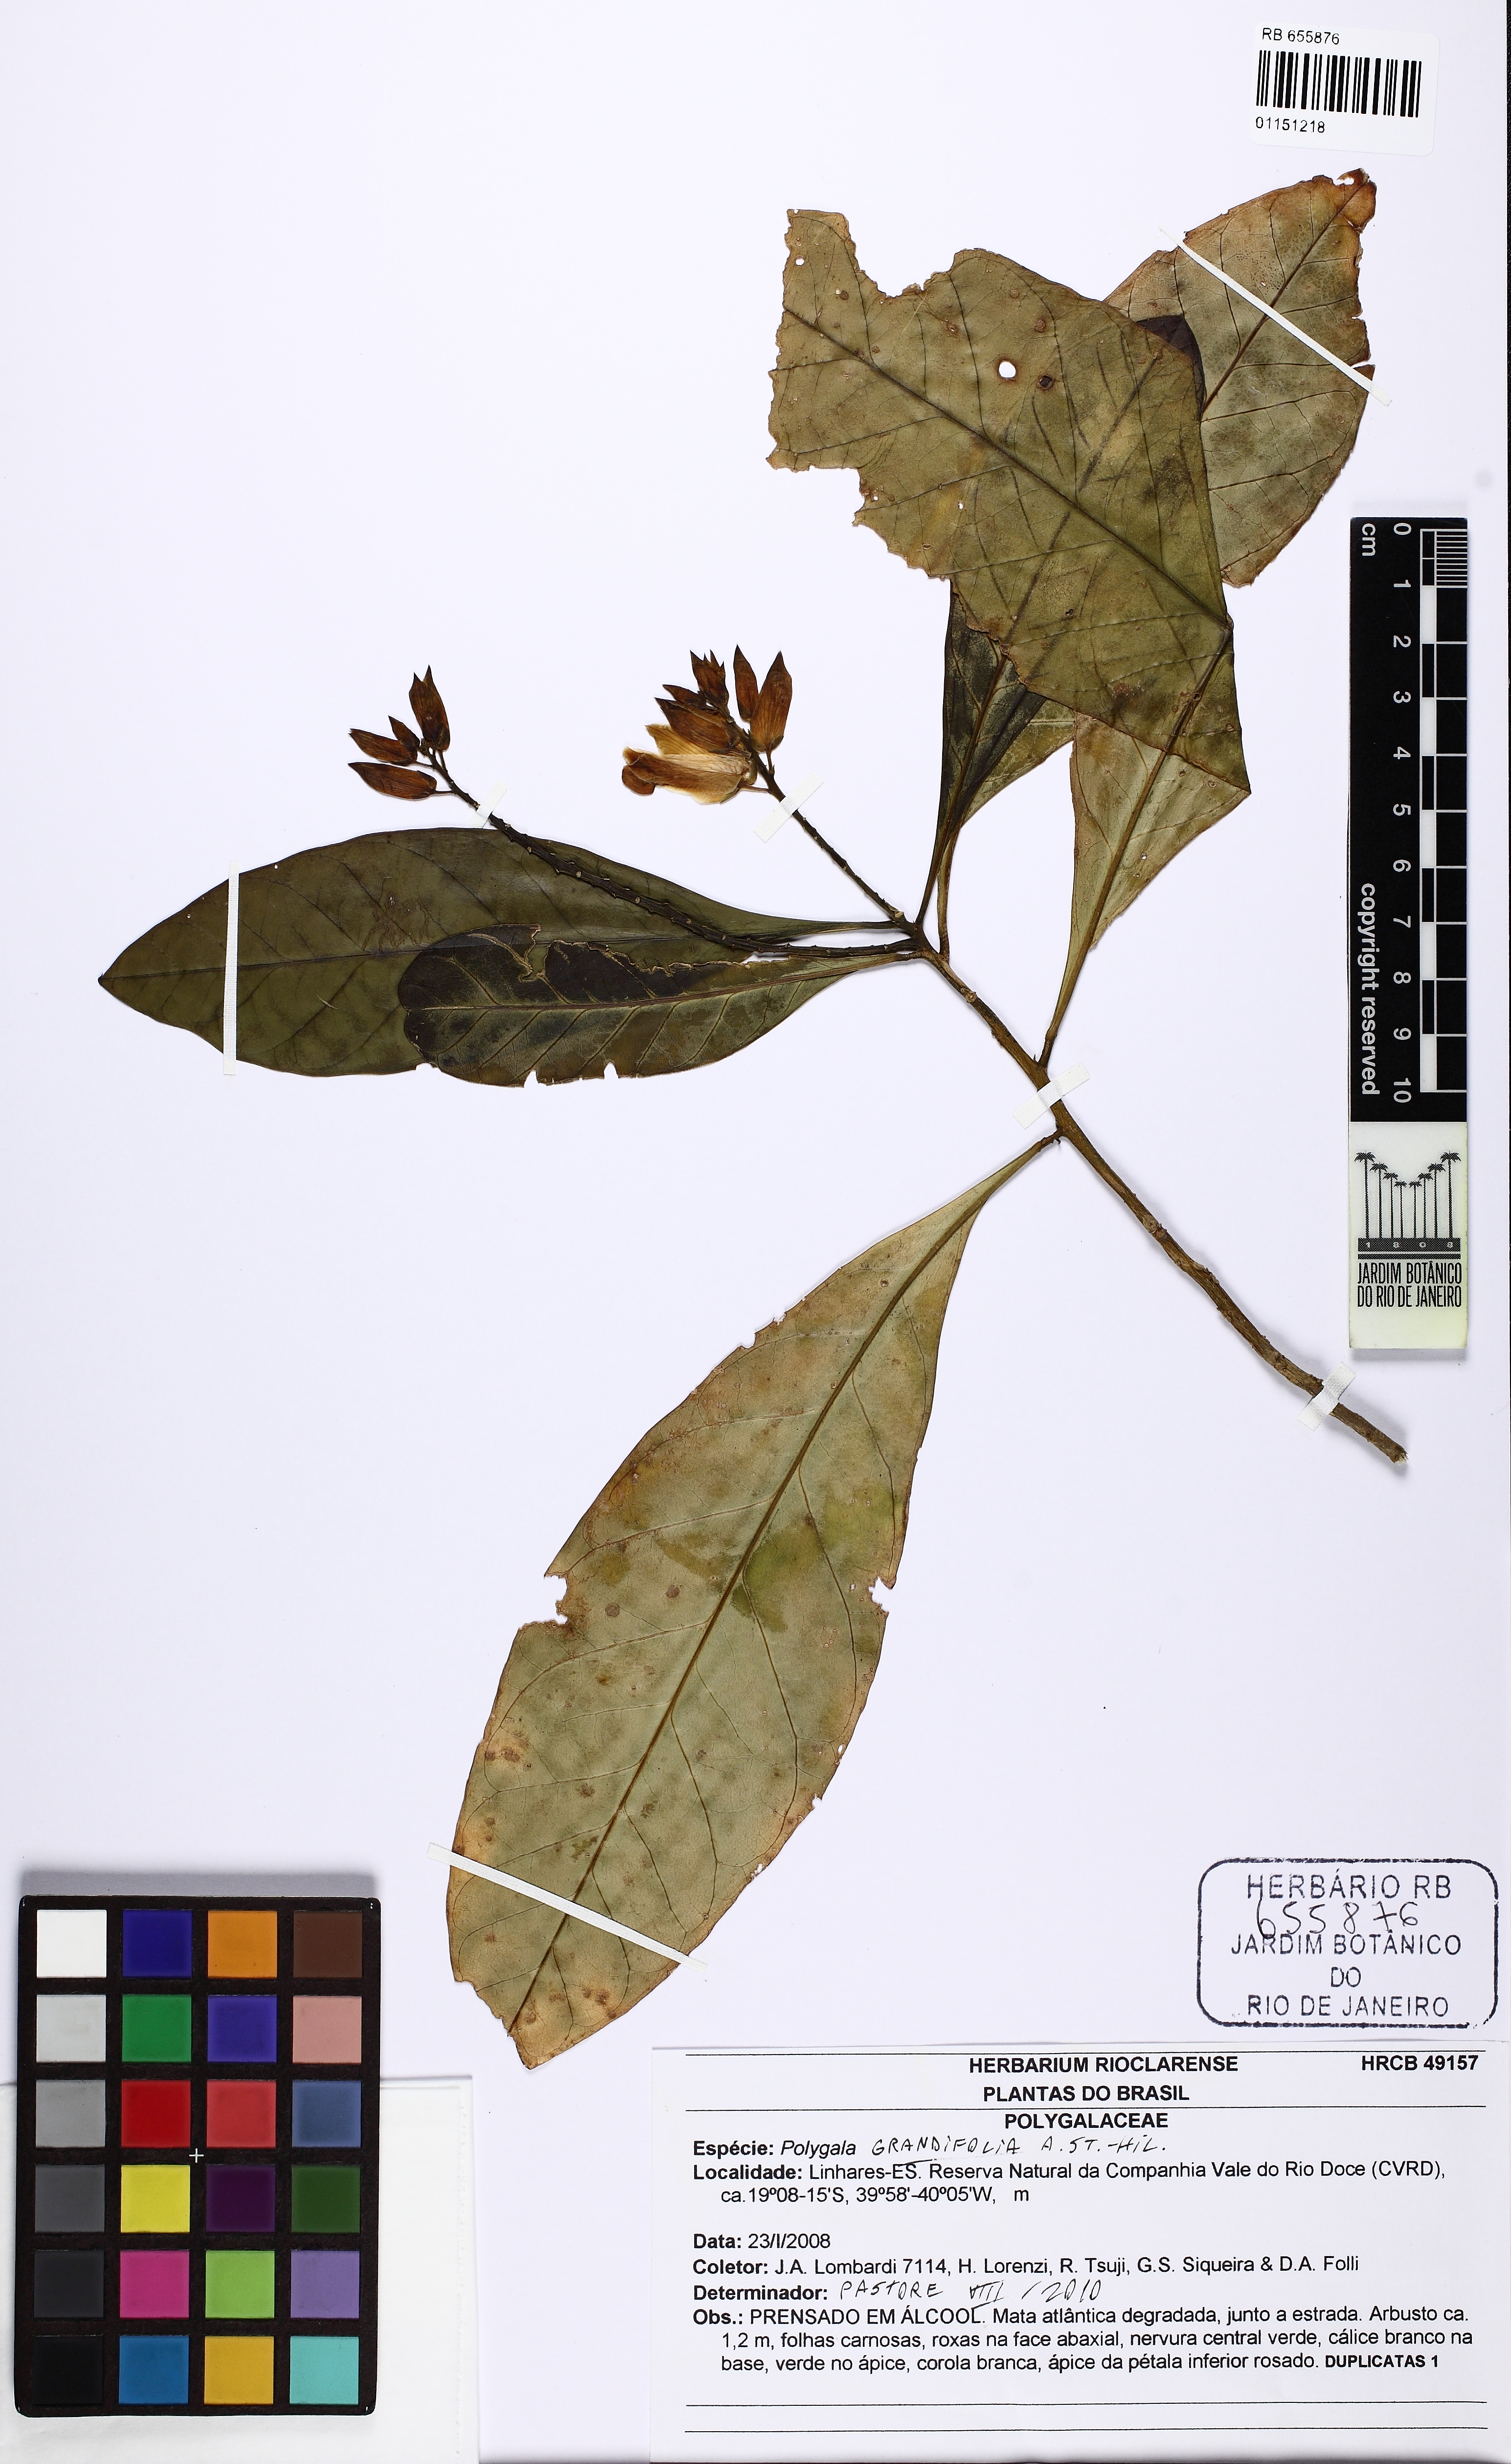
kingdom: Plantae
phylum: Tracheophyta
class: Magnoliopsida
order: Fabales
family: Polygalaceae
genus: Caamembeca
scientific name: Caamembeca grandifolia
